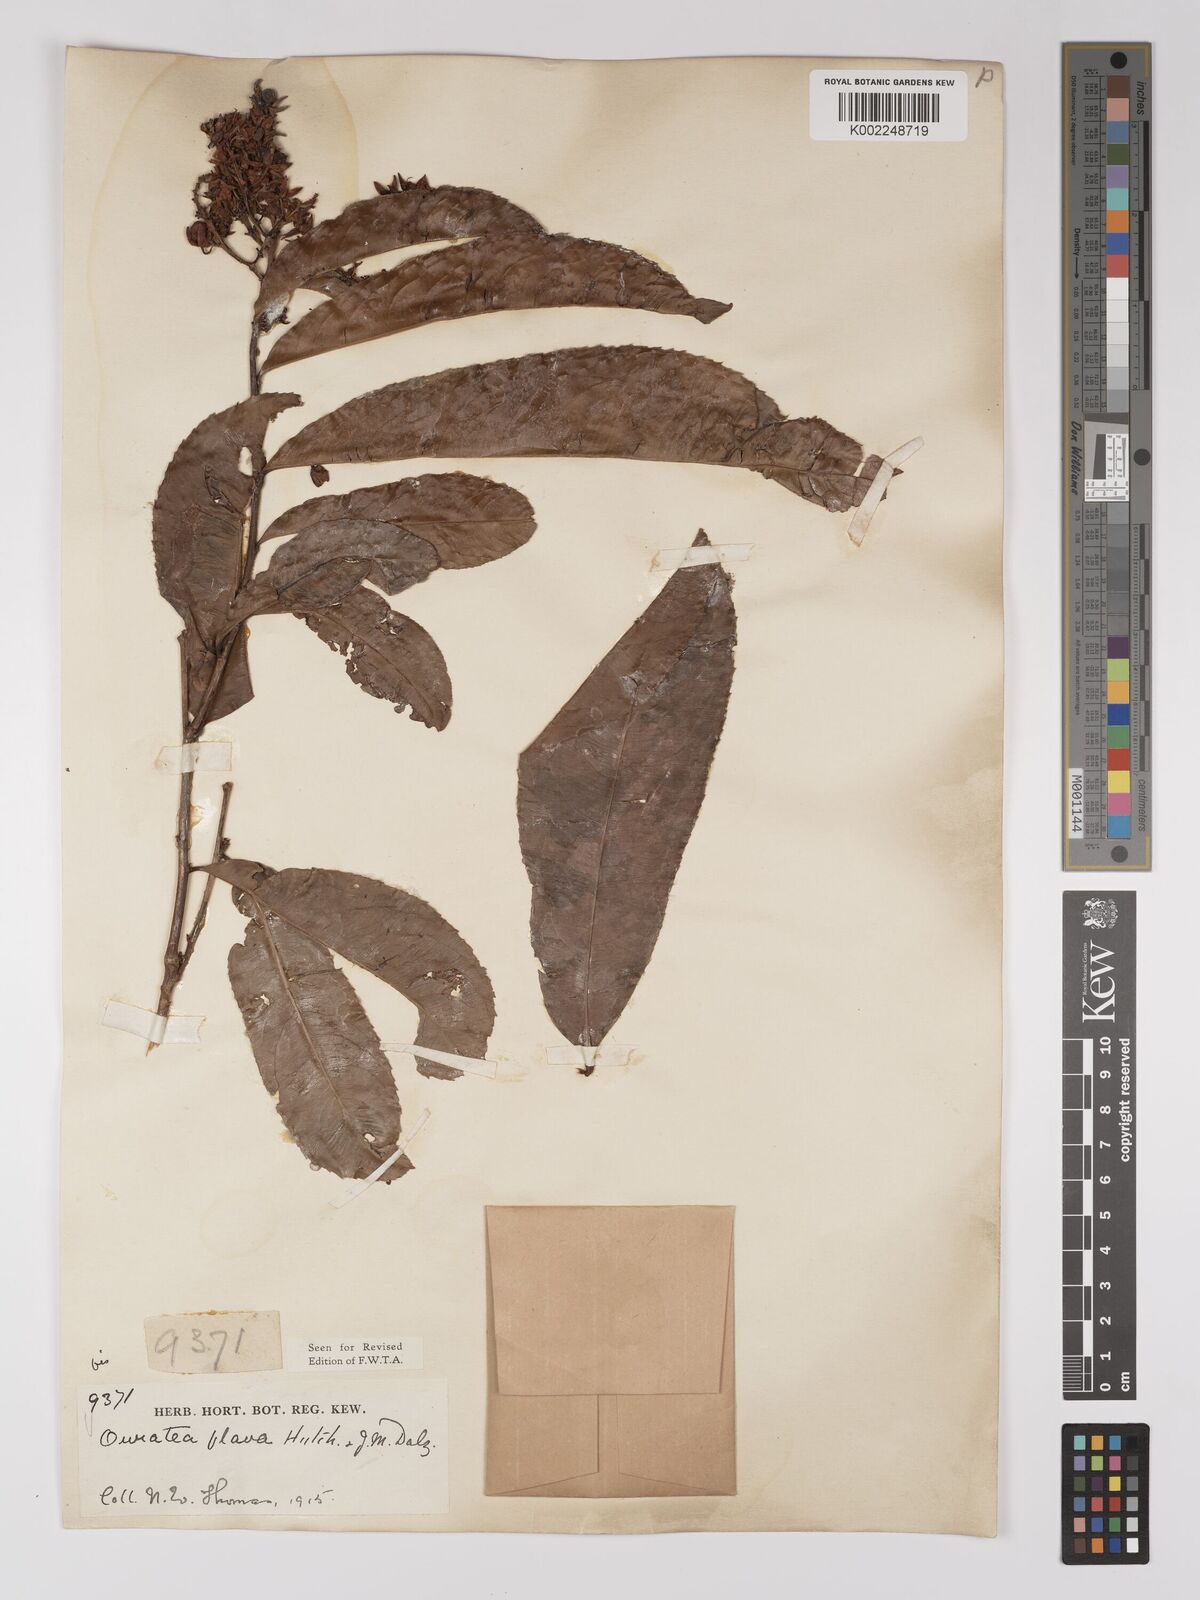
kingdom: Plantae
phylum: Tracheophyta
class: Magnoliopsida
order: Malpighiales
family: Ochnaceae
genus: Campylospermum
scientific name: Campylospermum flavum
